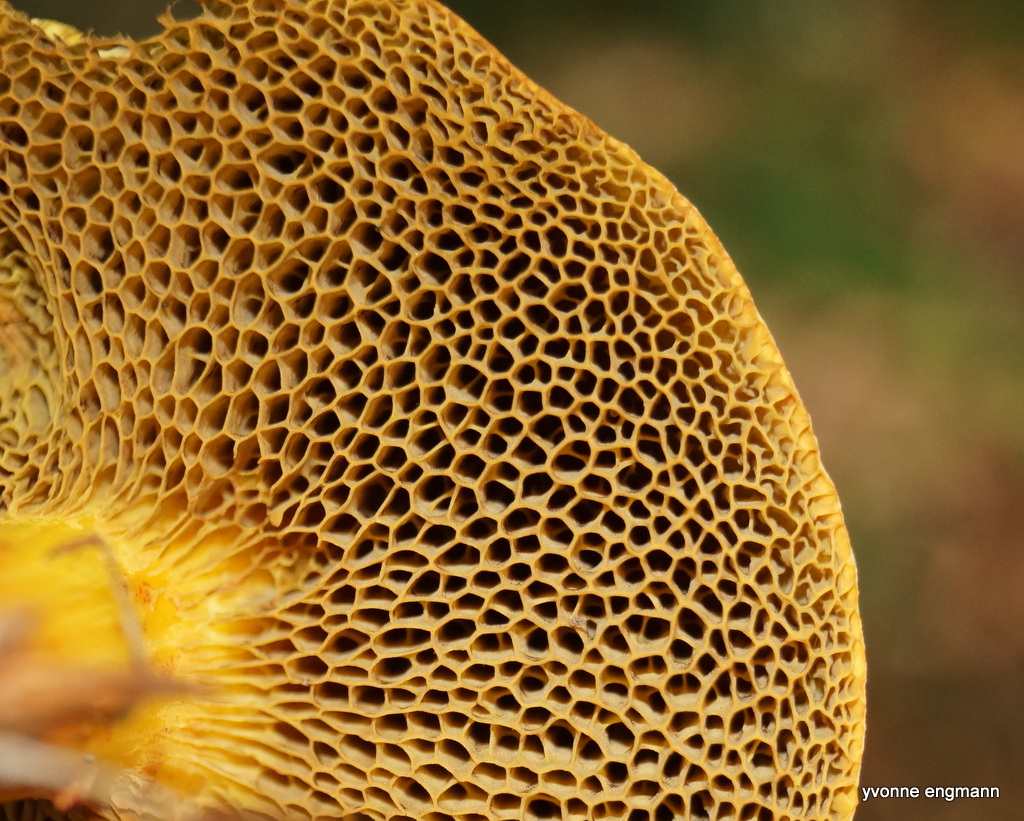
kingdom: Fungi
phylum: Basidiomycota
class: Agaricomycetes
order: Boletales
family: Boletaceae
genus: Hortiboletus
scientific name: Hortiboletus engelii
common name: fersken-rørhat
